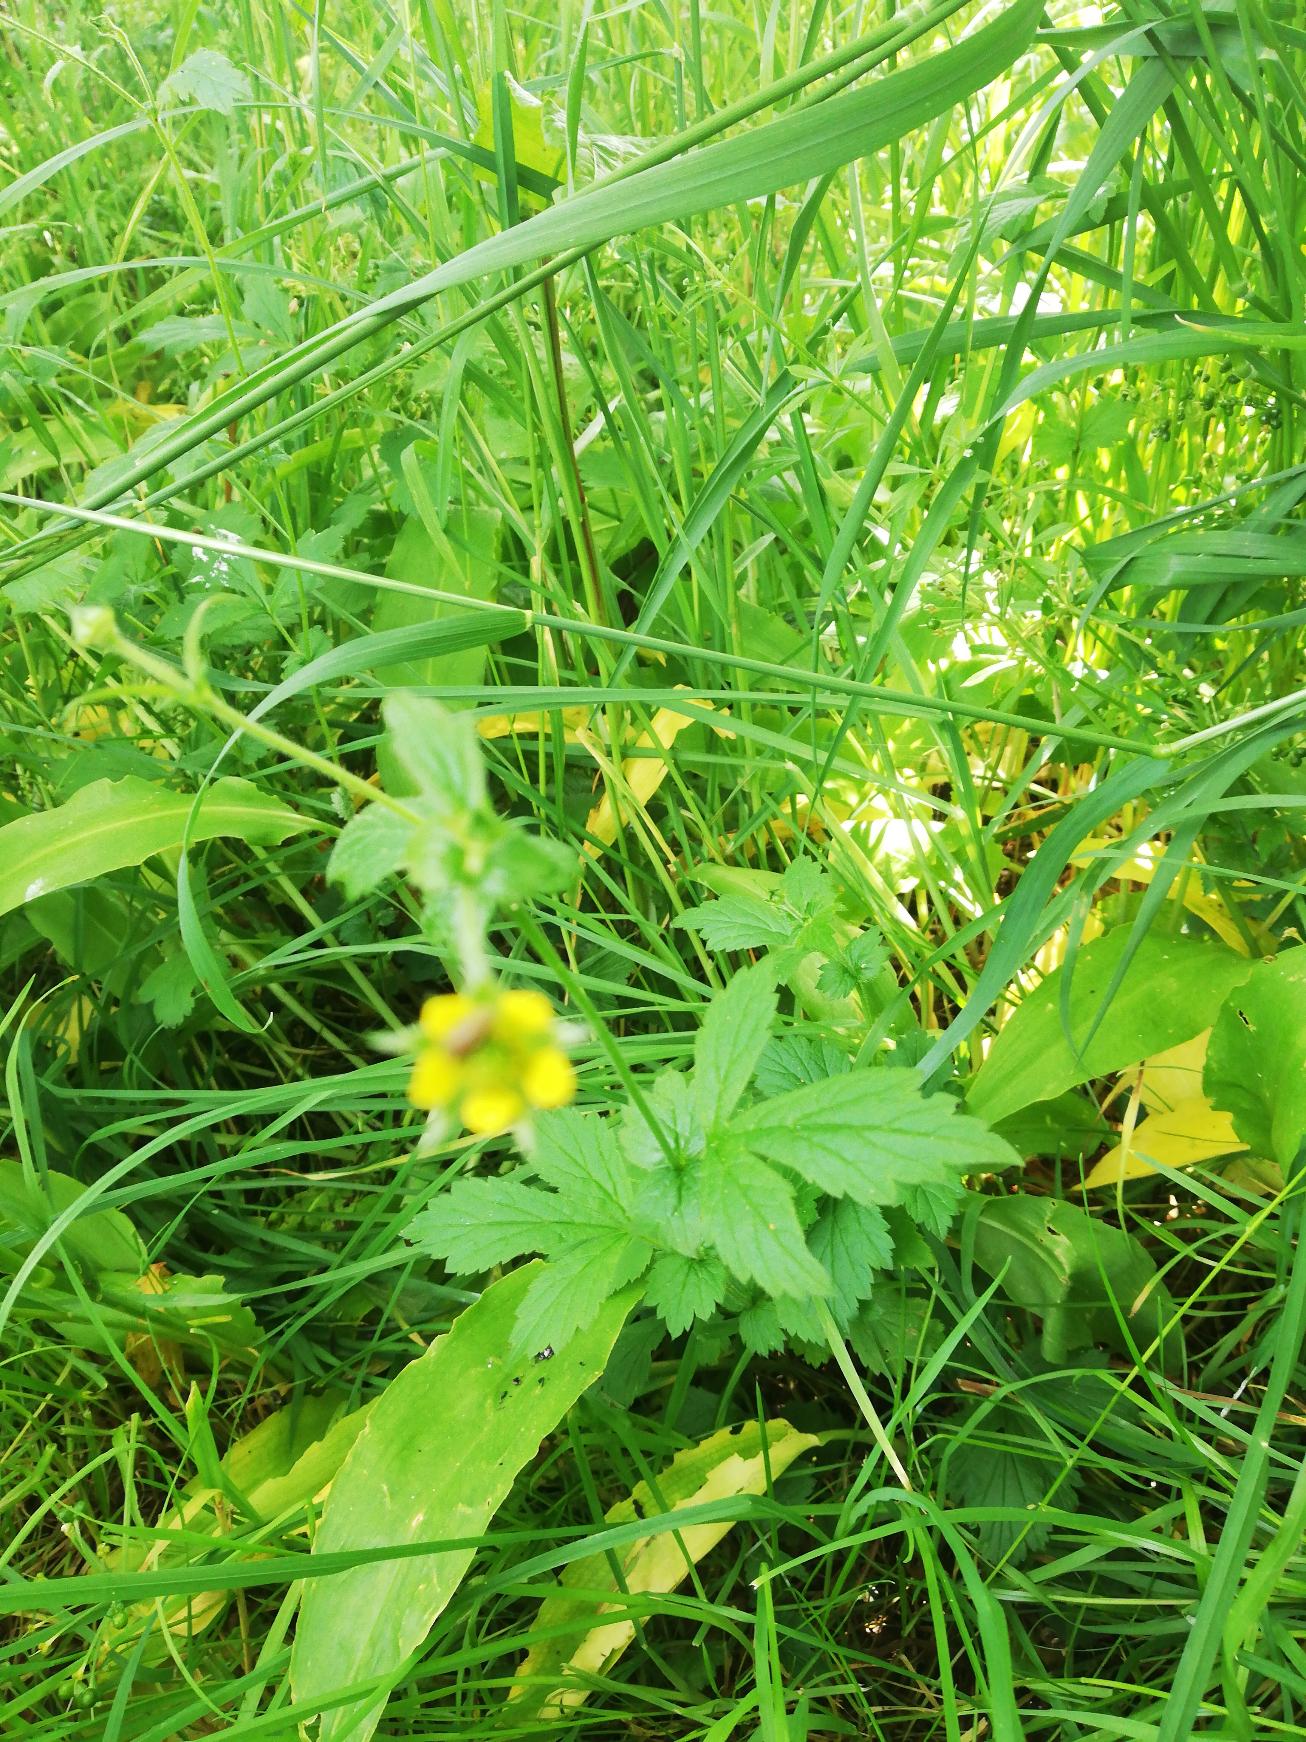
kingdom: Plantae
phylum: Tracheophyta
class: Magnoliopsida
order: Rosales
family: Rosaceae
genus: Geum
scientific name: Geum urbanum
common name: Feber-nellikerod
